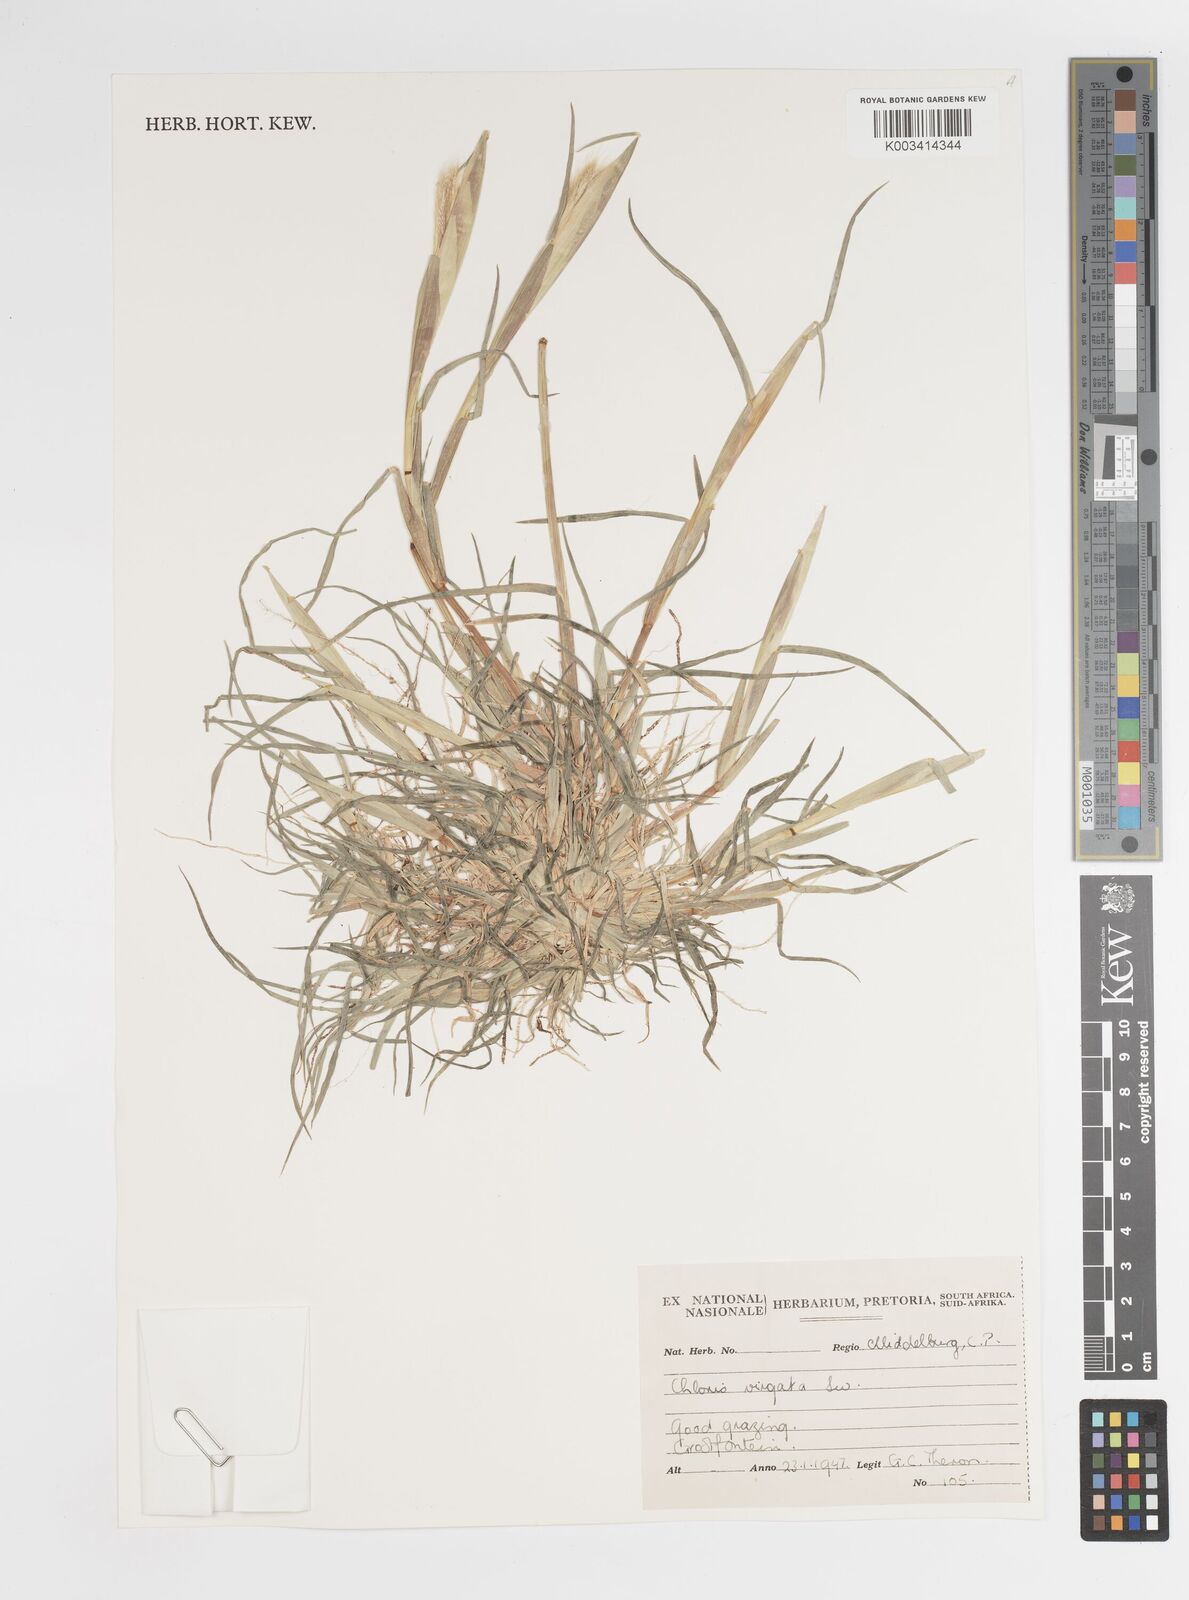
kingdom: Plantae
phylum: Tracheophyta
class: Liliopsida
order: Poales
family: Poaceae
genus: Chloris
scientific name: Chloris virgata
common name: Feathery rhodes-grass
